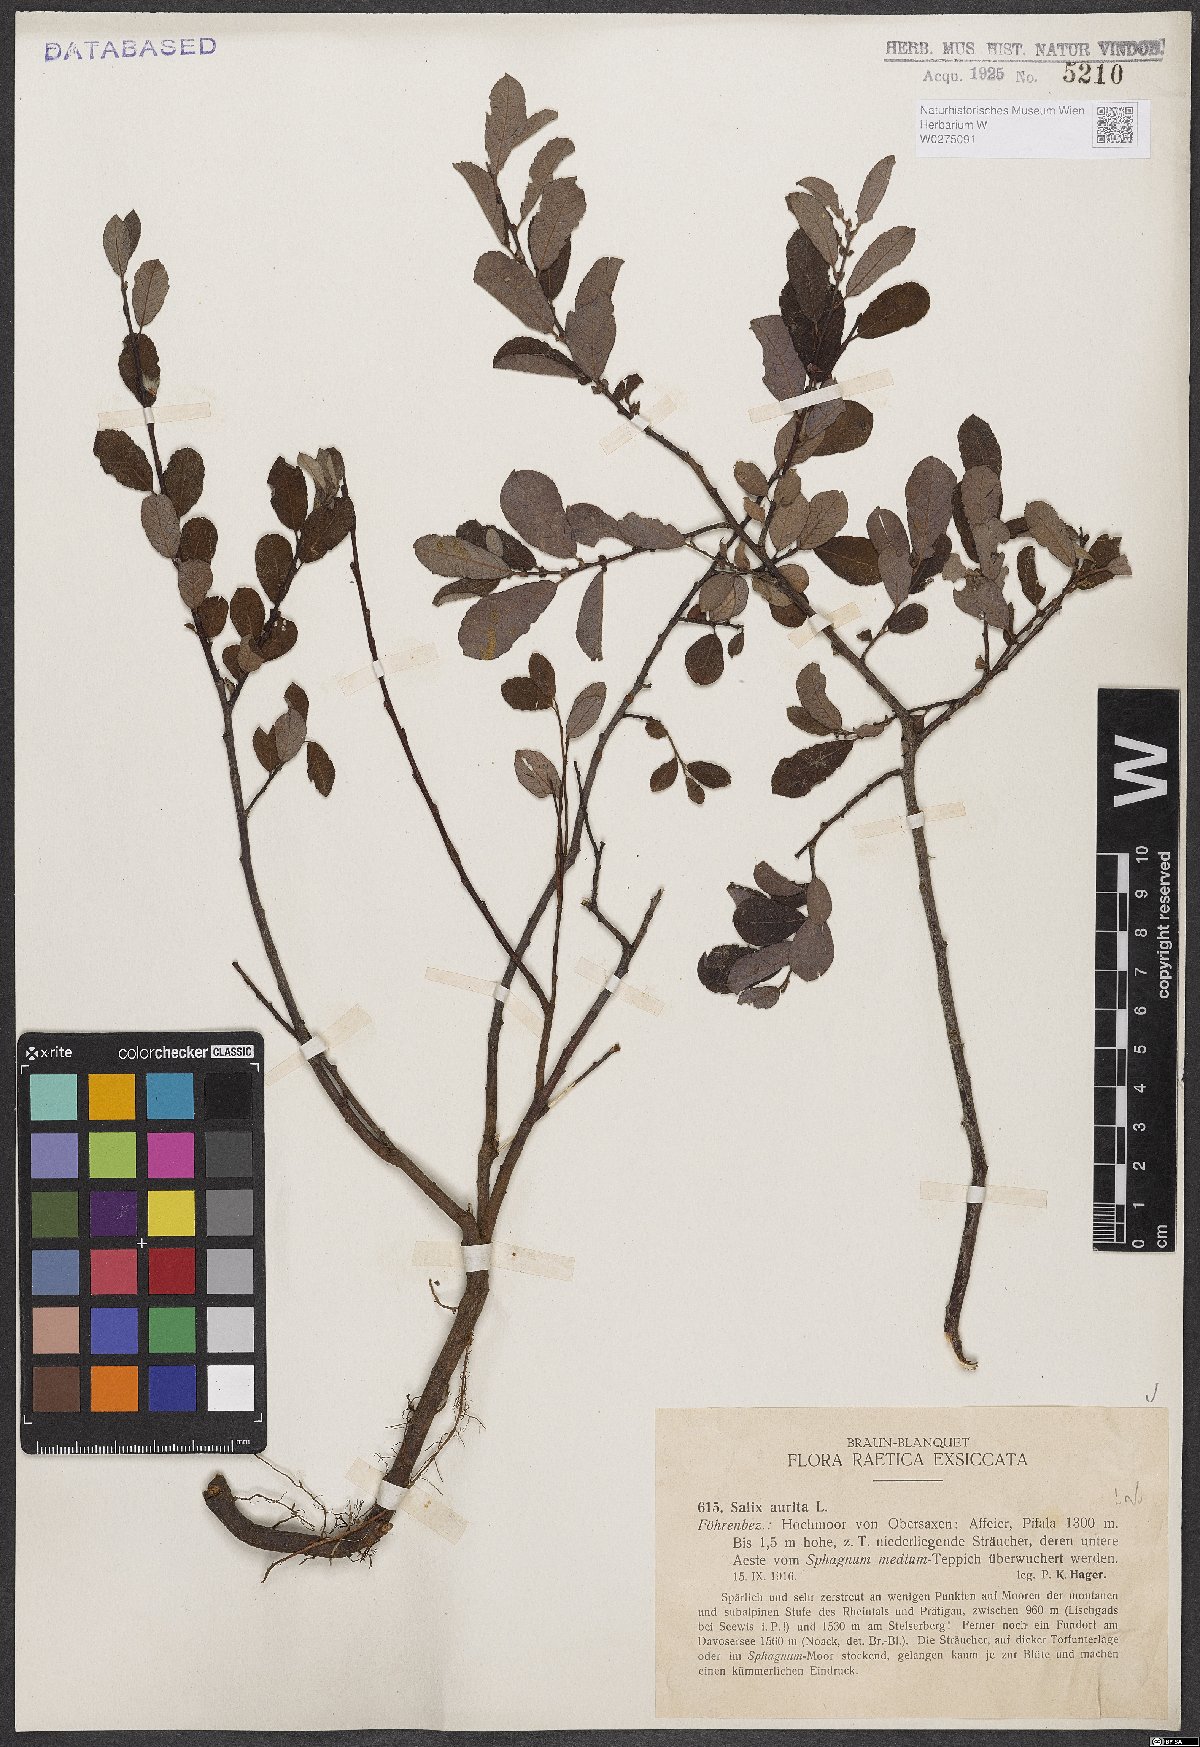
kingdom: Plantae
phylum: Tracheophyta
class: Magnoliopsida
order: Malpighiales
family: Salicaceae
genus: Salix
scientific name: Salix aurita
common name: Eared willow
